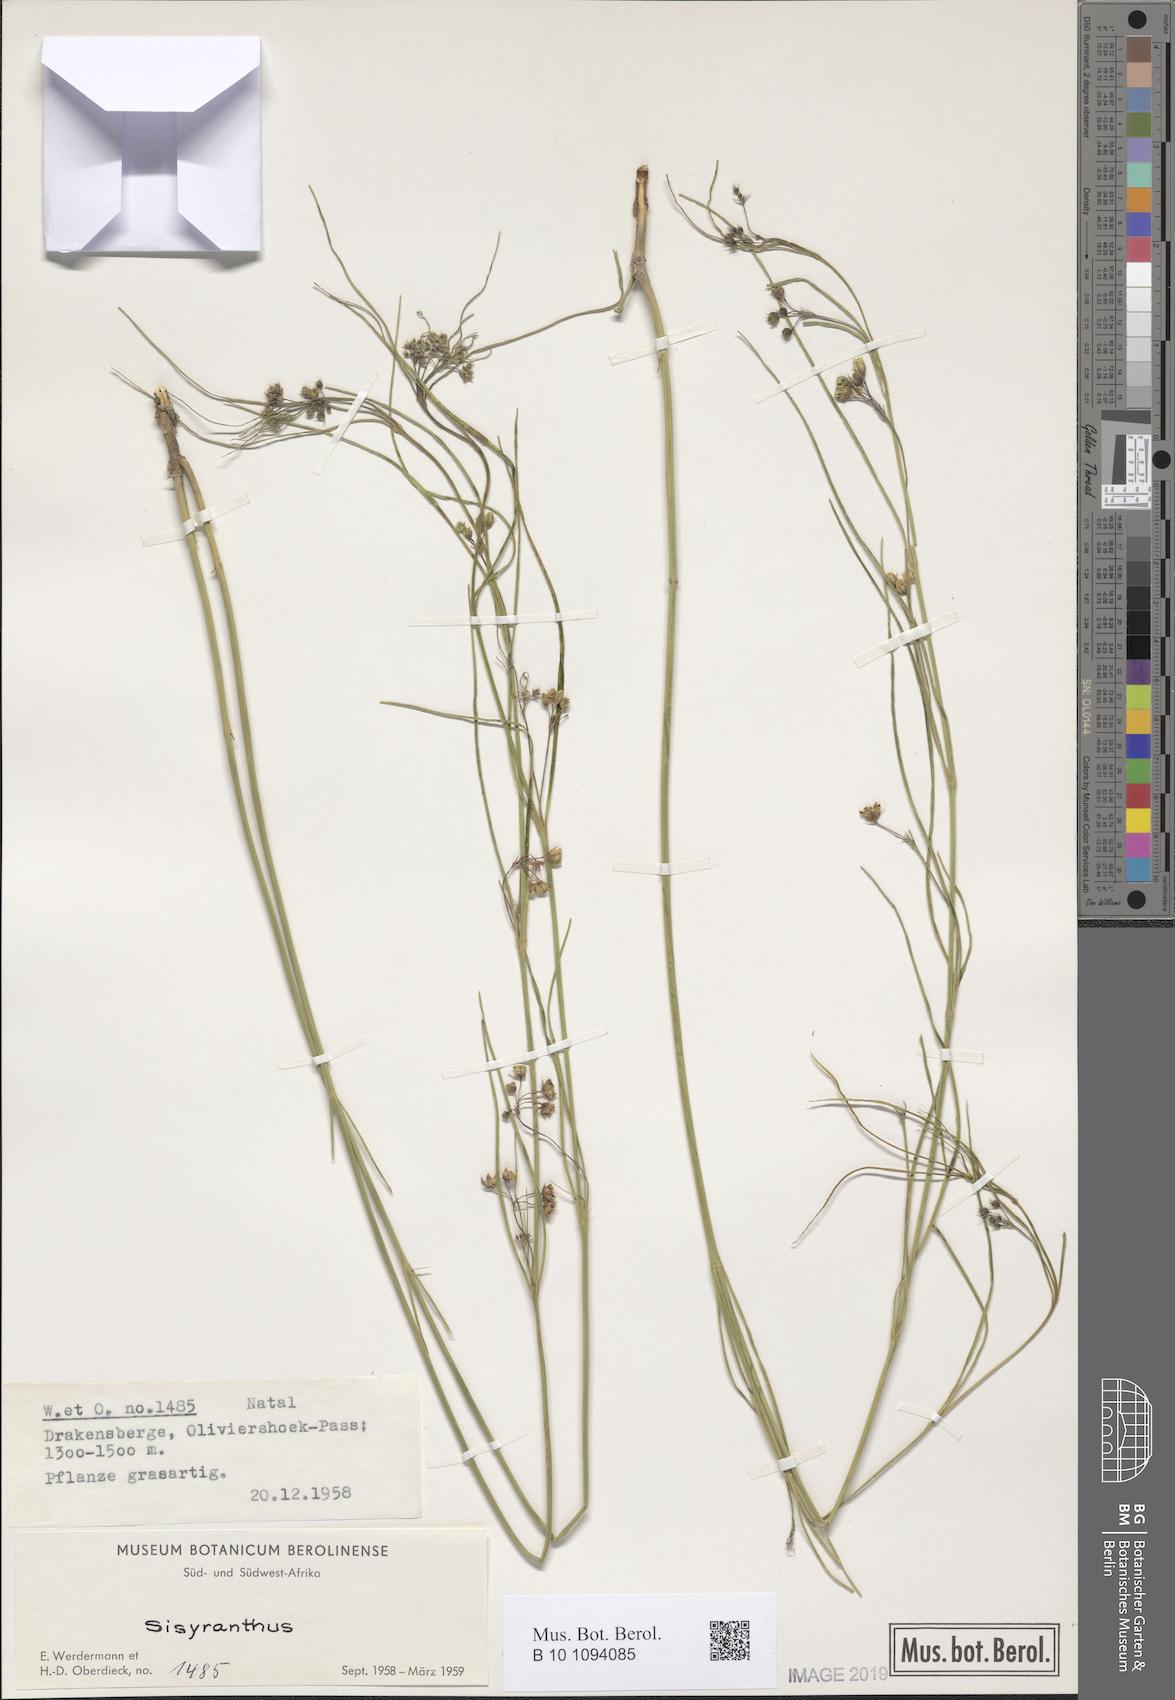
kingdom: Plantae
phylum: Tracheophyta
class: Magnoliopsida
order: Gentianales
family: Apocynaceae
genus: Sisyranthus
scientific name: Sisyranthus
